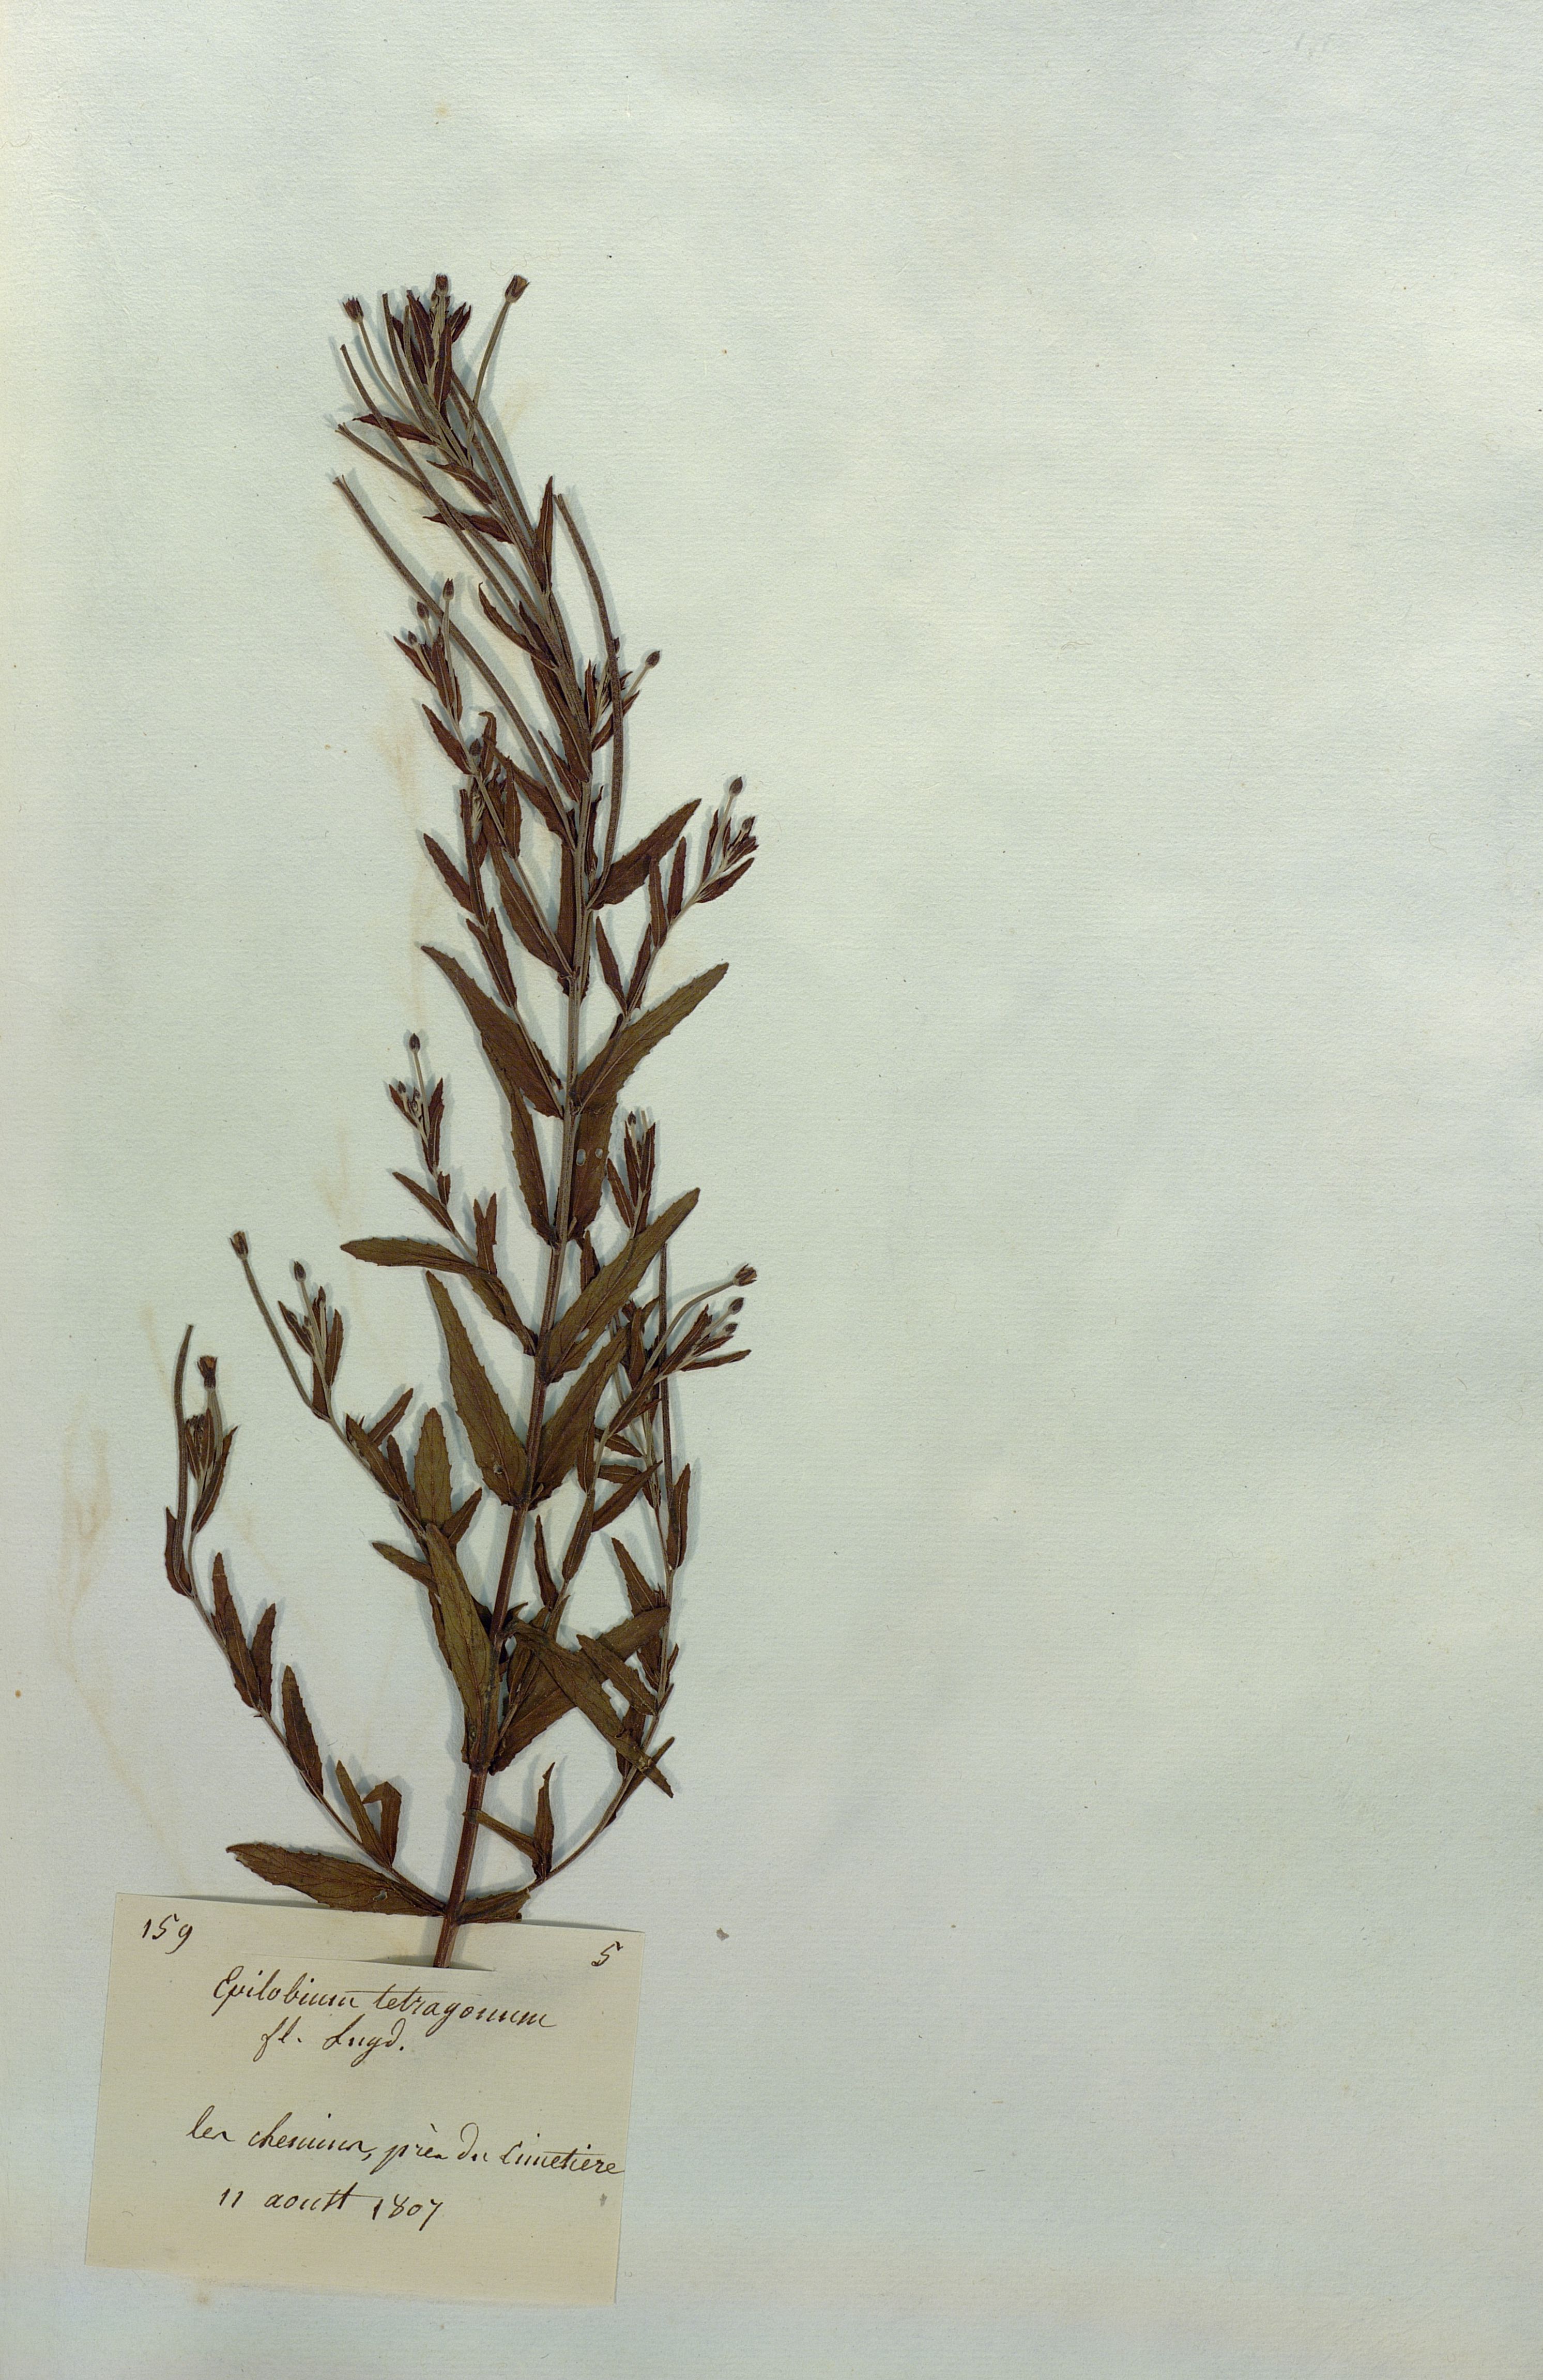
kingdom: Plantae
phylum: Tracheophyta
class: Magnoliopsida
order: Myrtales
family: Onagraceae
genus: Epilobium
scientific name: Epilobium tetragonum
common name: Square-stemmed willowherb
